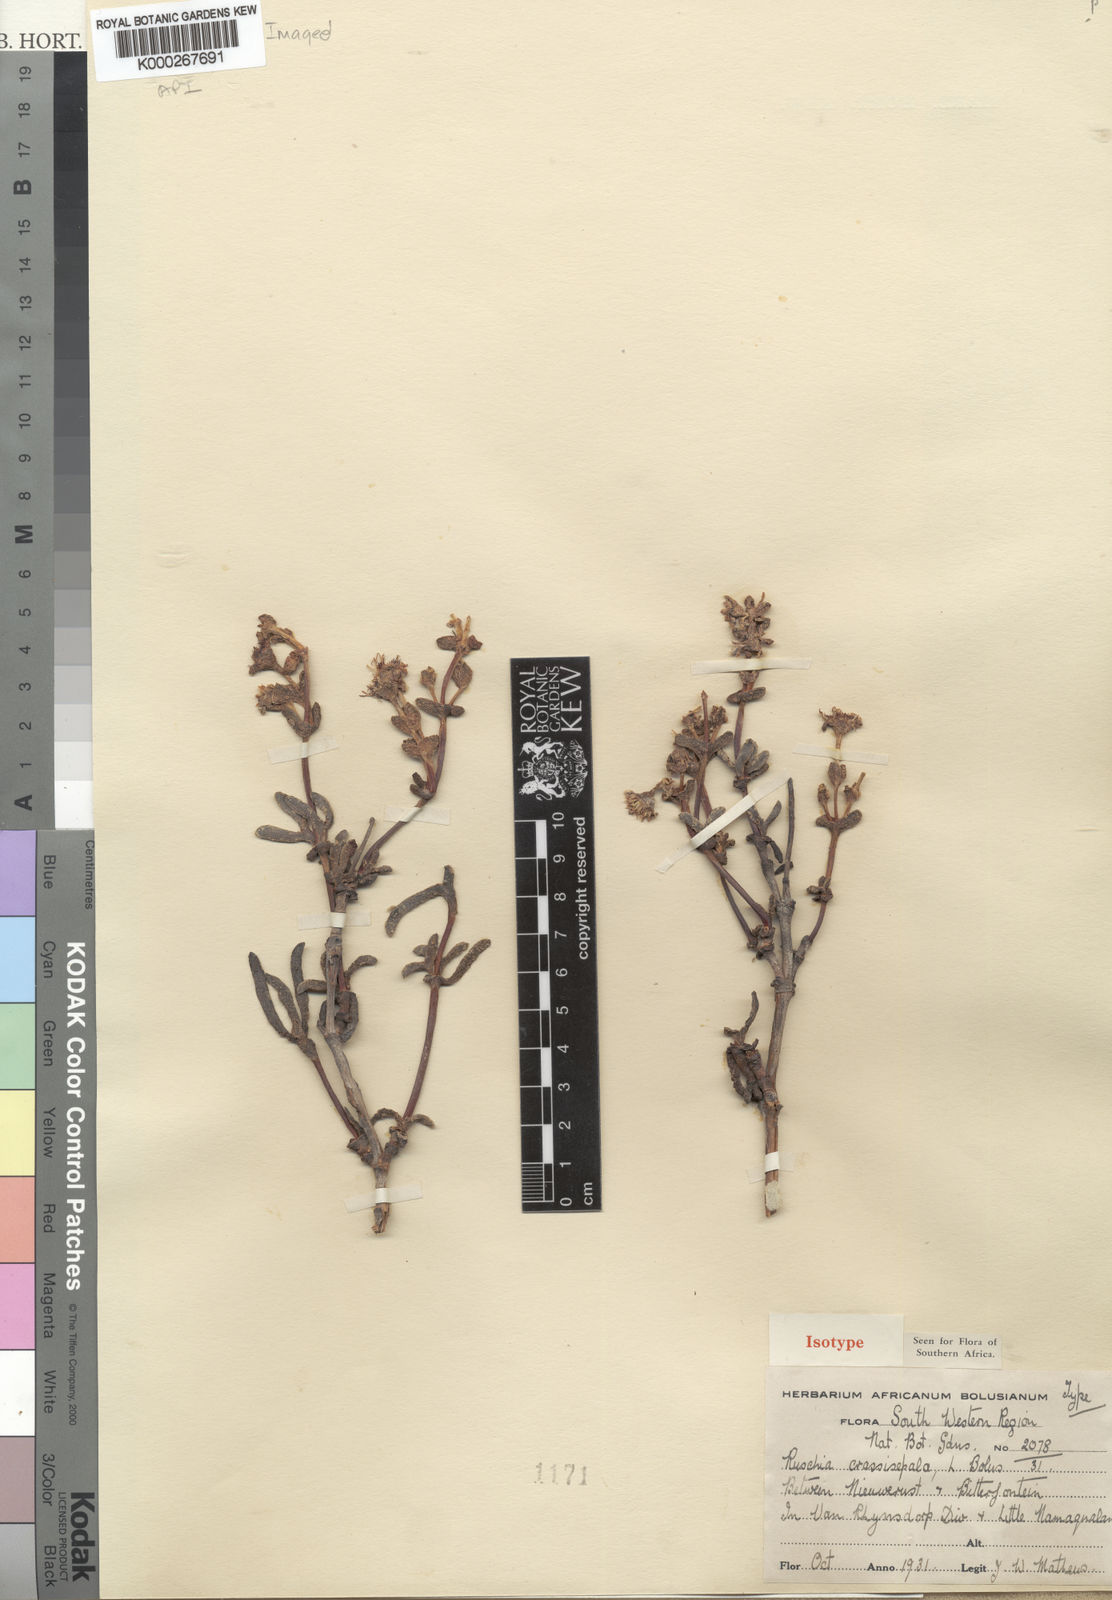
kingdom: Plantae
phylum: Tracheophyta
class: Magnoliopsida
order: Caryophyllales
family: Aizoaceae
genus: Ruschia
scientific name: Ruschia crassisepala
